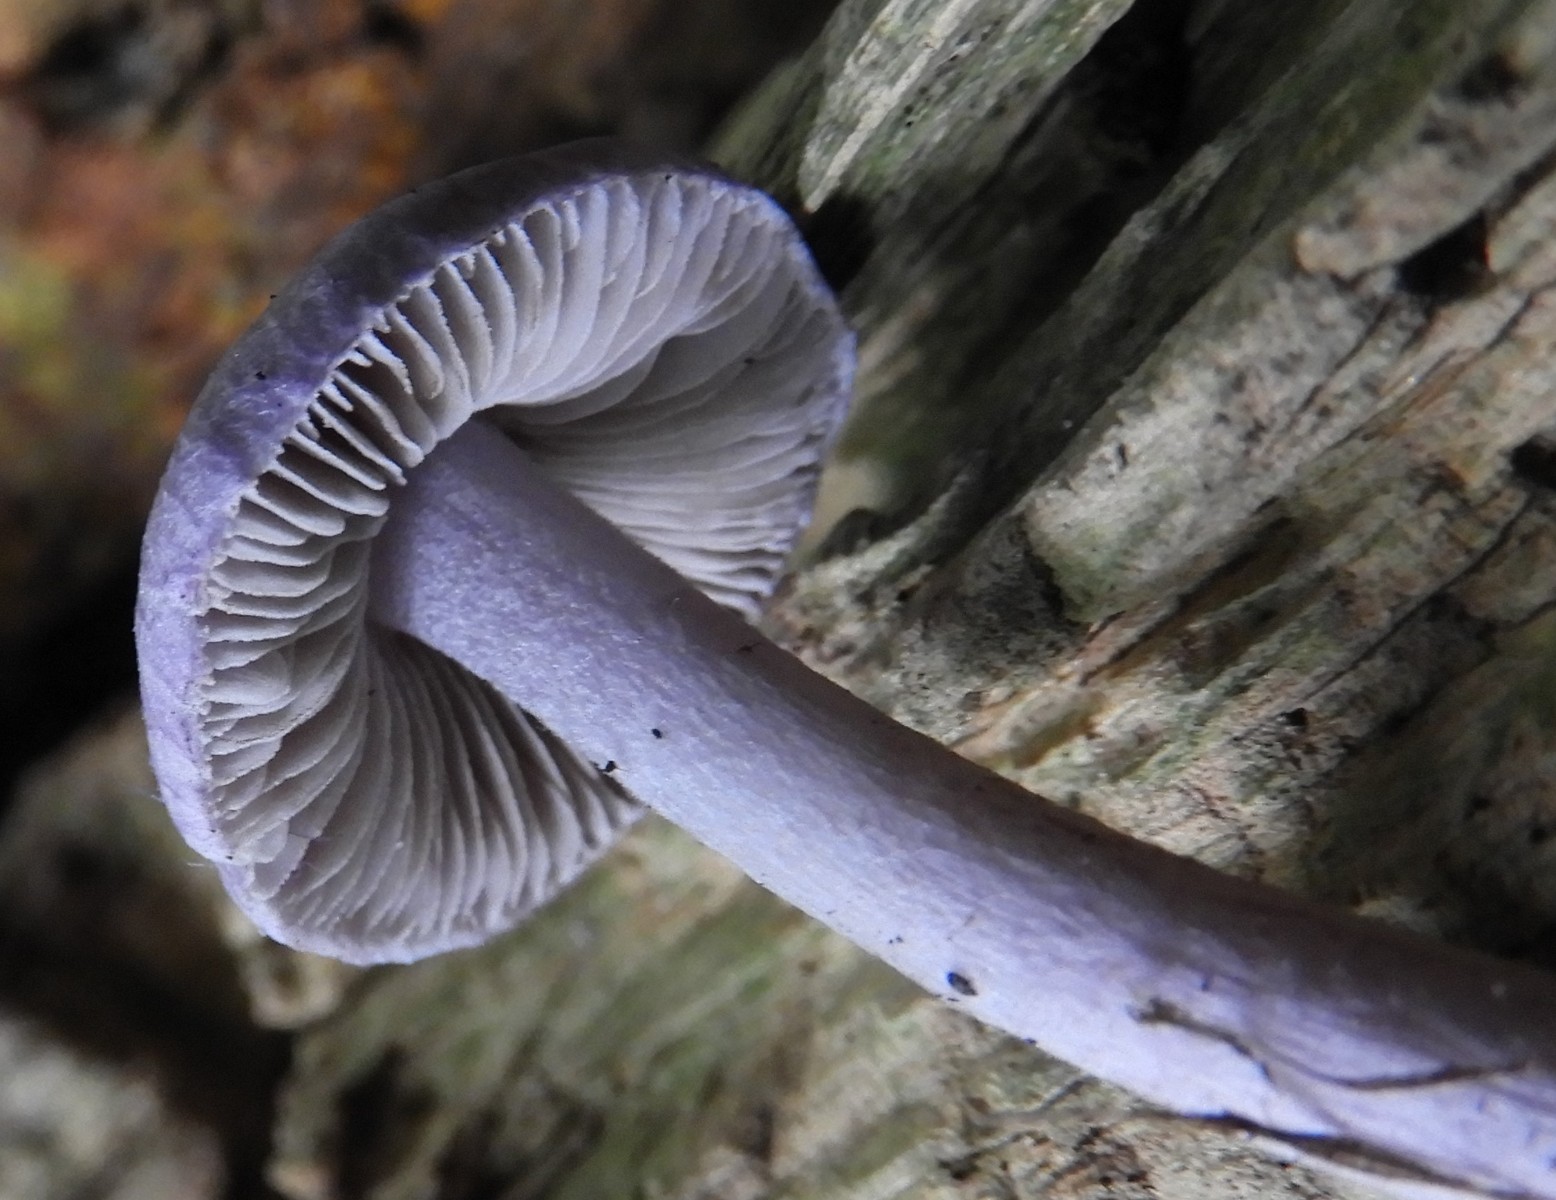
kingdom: Fungi
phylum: Basidiomycota
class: Agaricomycetes
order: Agaricales
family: Inocybaceae
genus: Inocybe
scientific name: Inocybe geophylla
